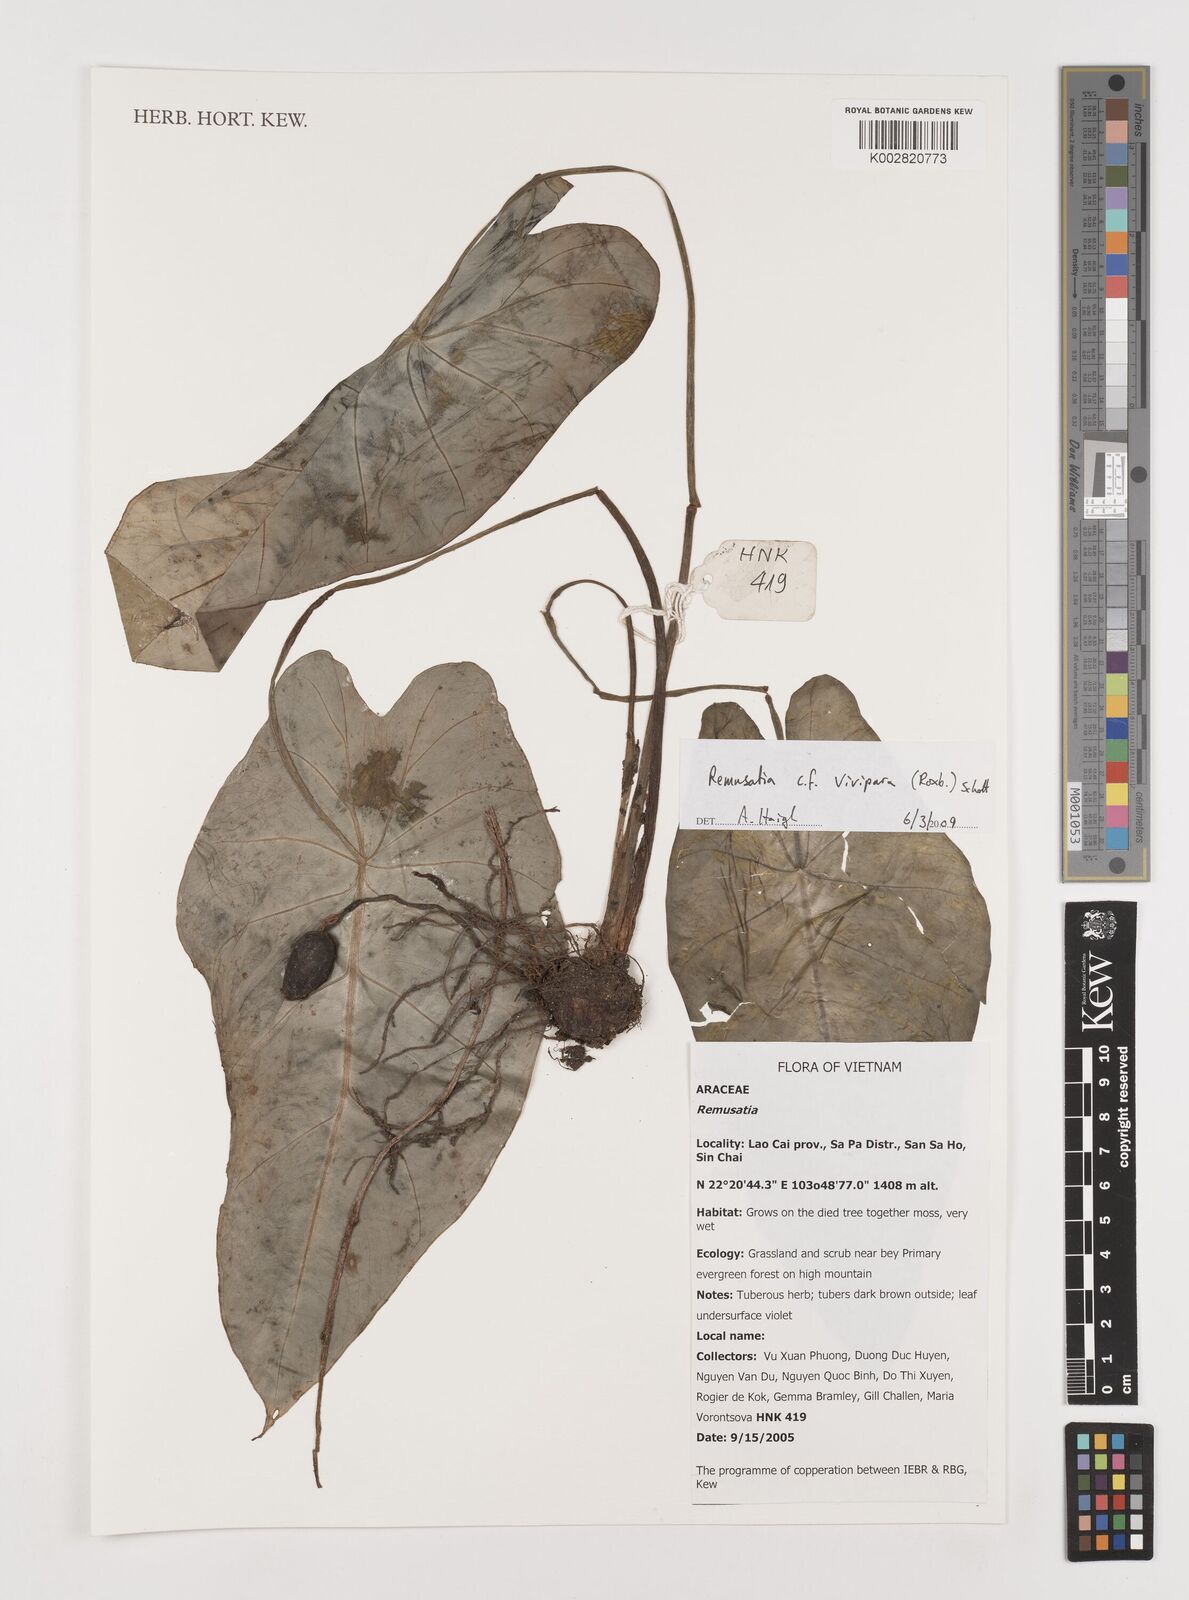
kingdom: Plantae
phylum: Tracheophyta
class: Liliopsida
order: Alismatales
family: Araceae
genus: Remusatia
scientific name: Remusatia vivipara
